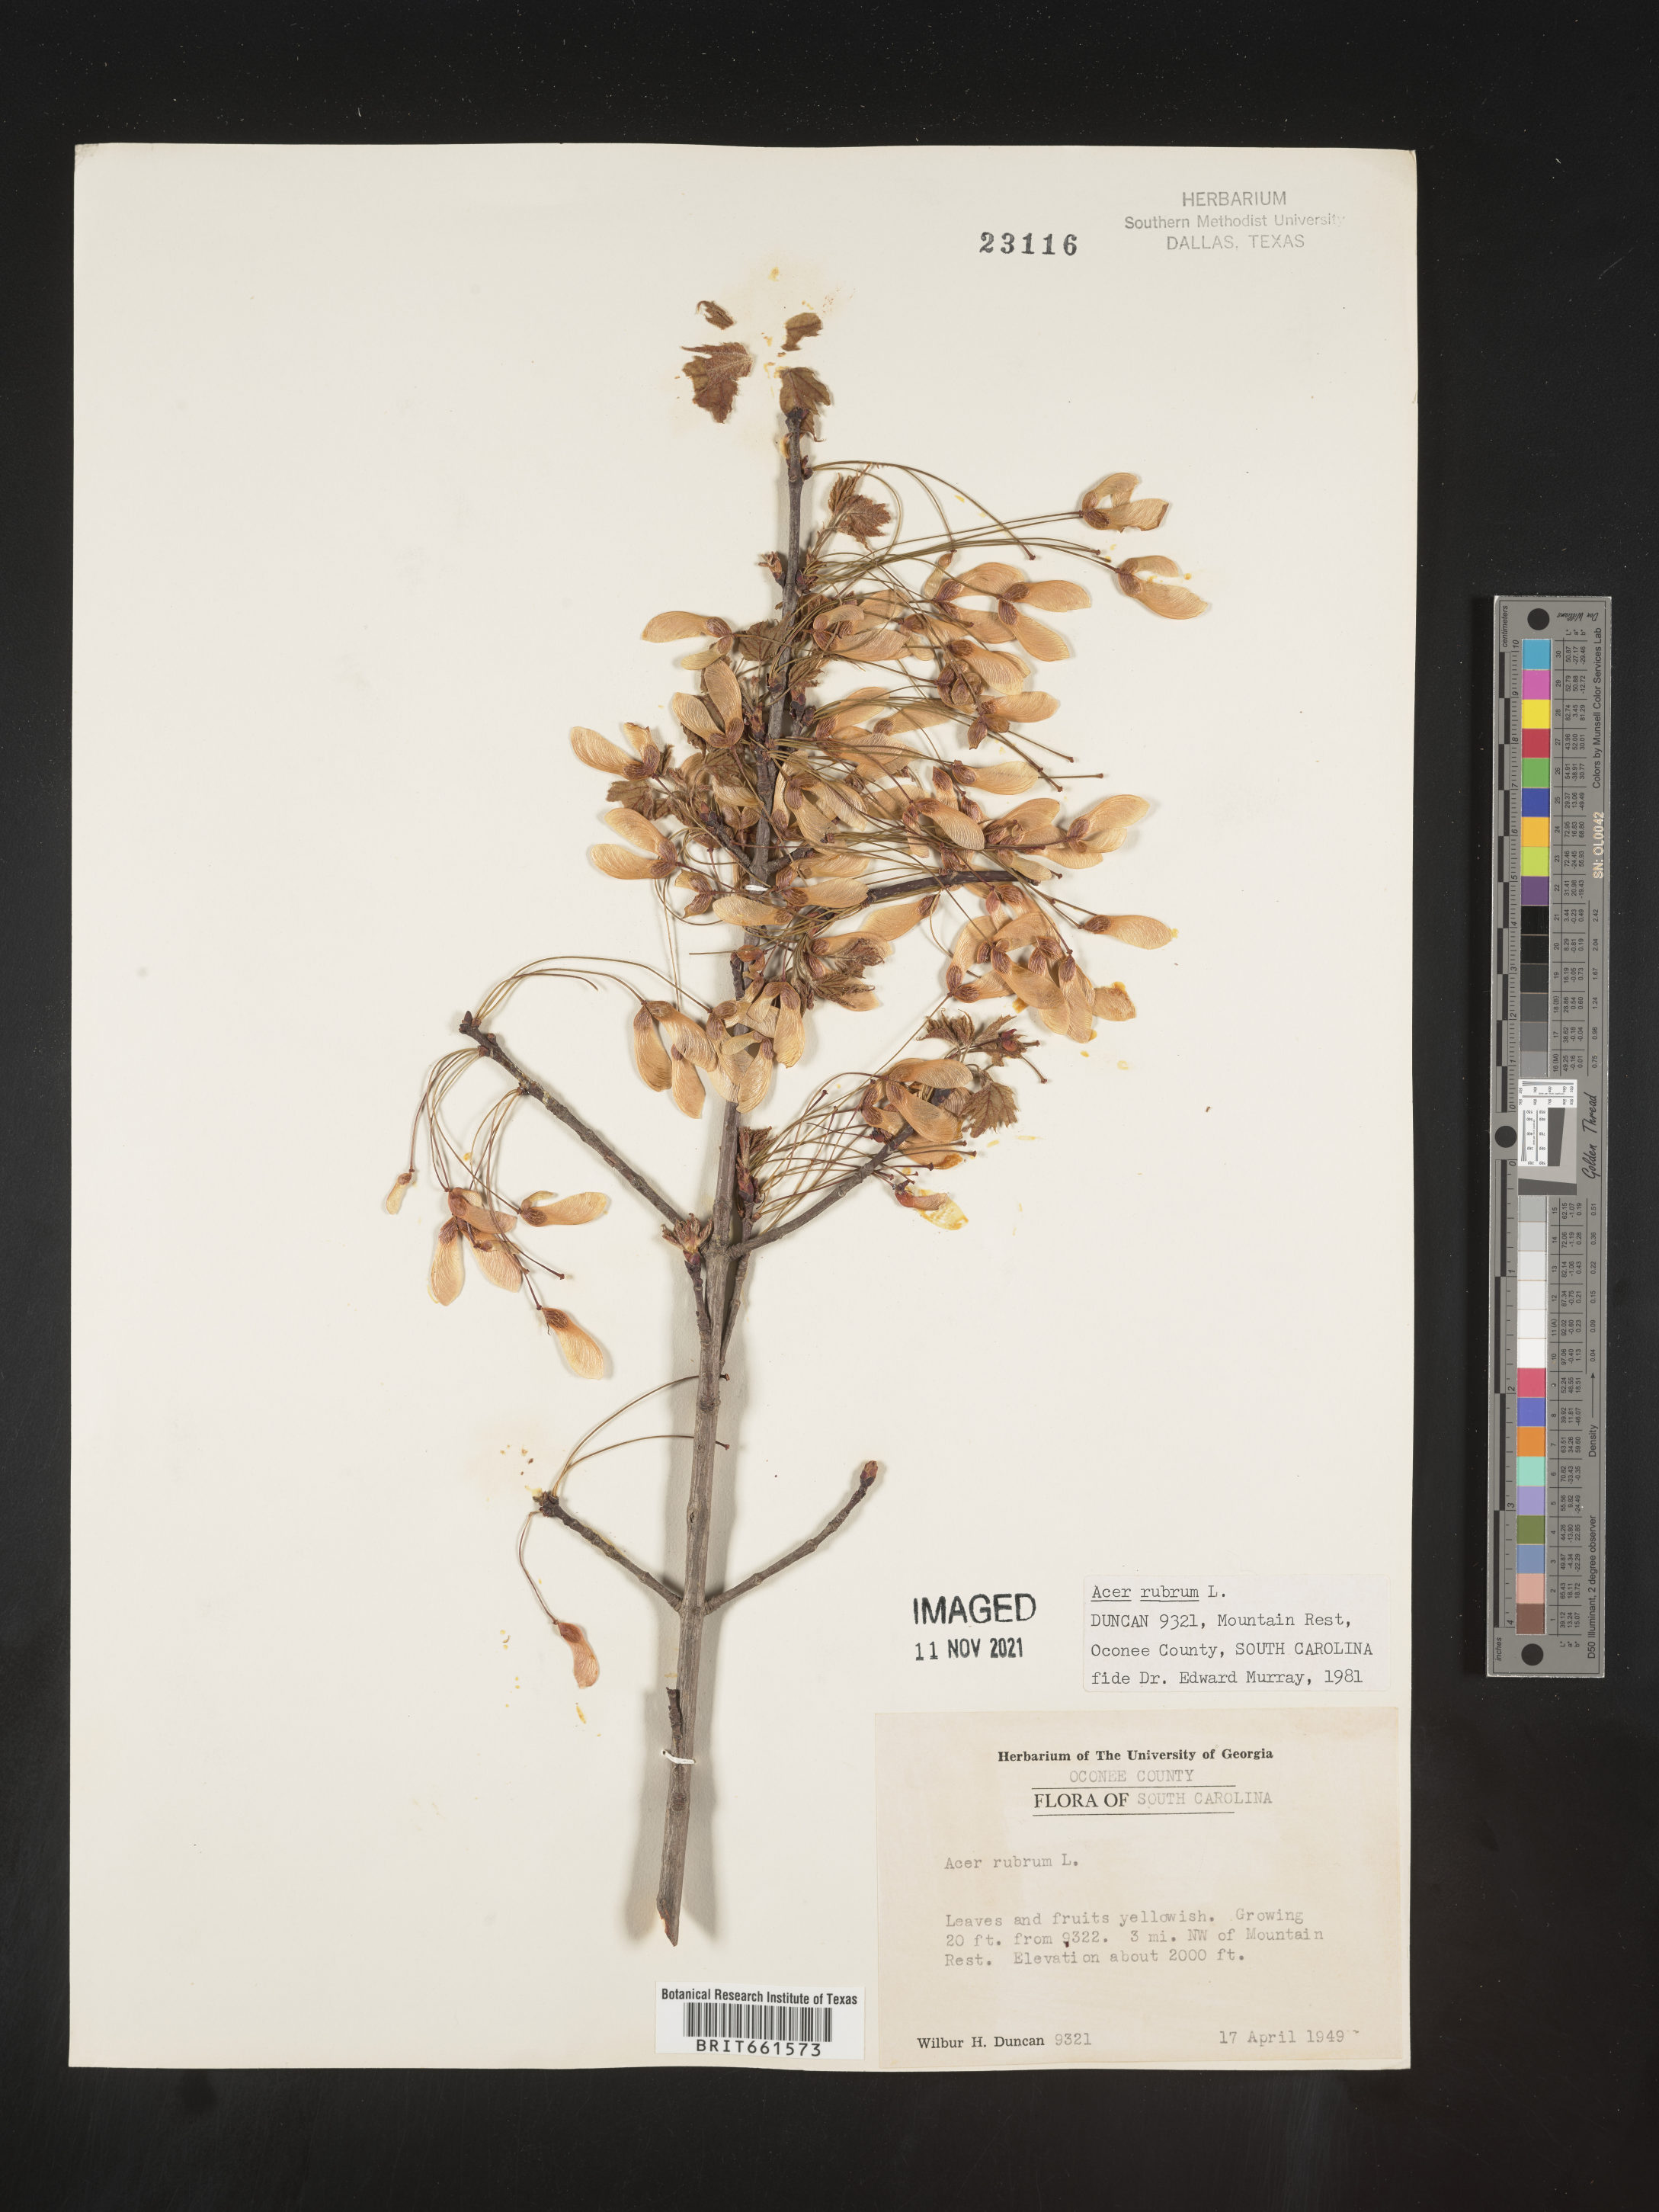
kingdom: Plantae
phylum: Tracheophyta
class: Magnoliopsida
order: Sapindales
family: Sapindaceae
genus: Acer
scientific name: Acer rubrum
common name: Red maple
